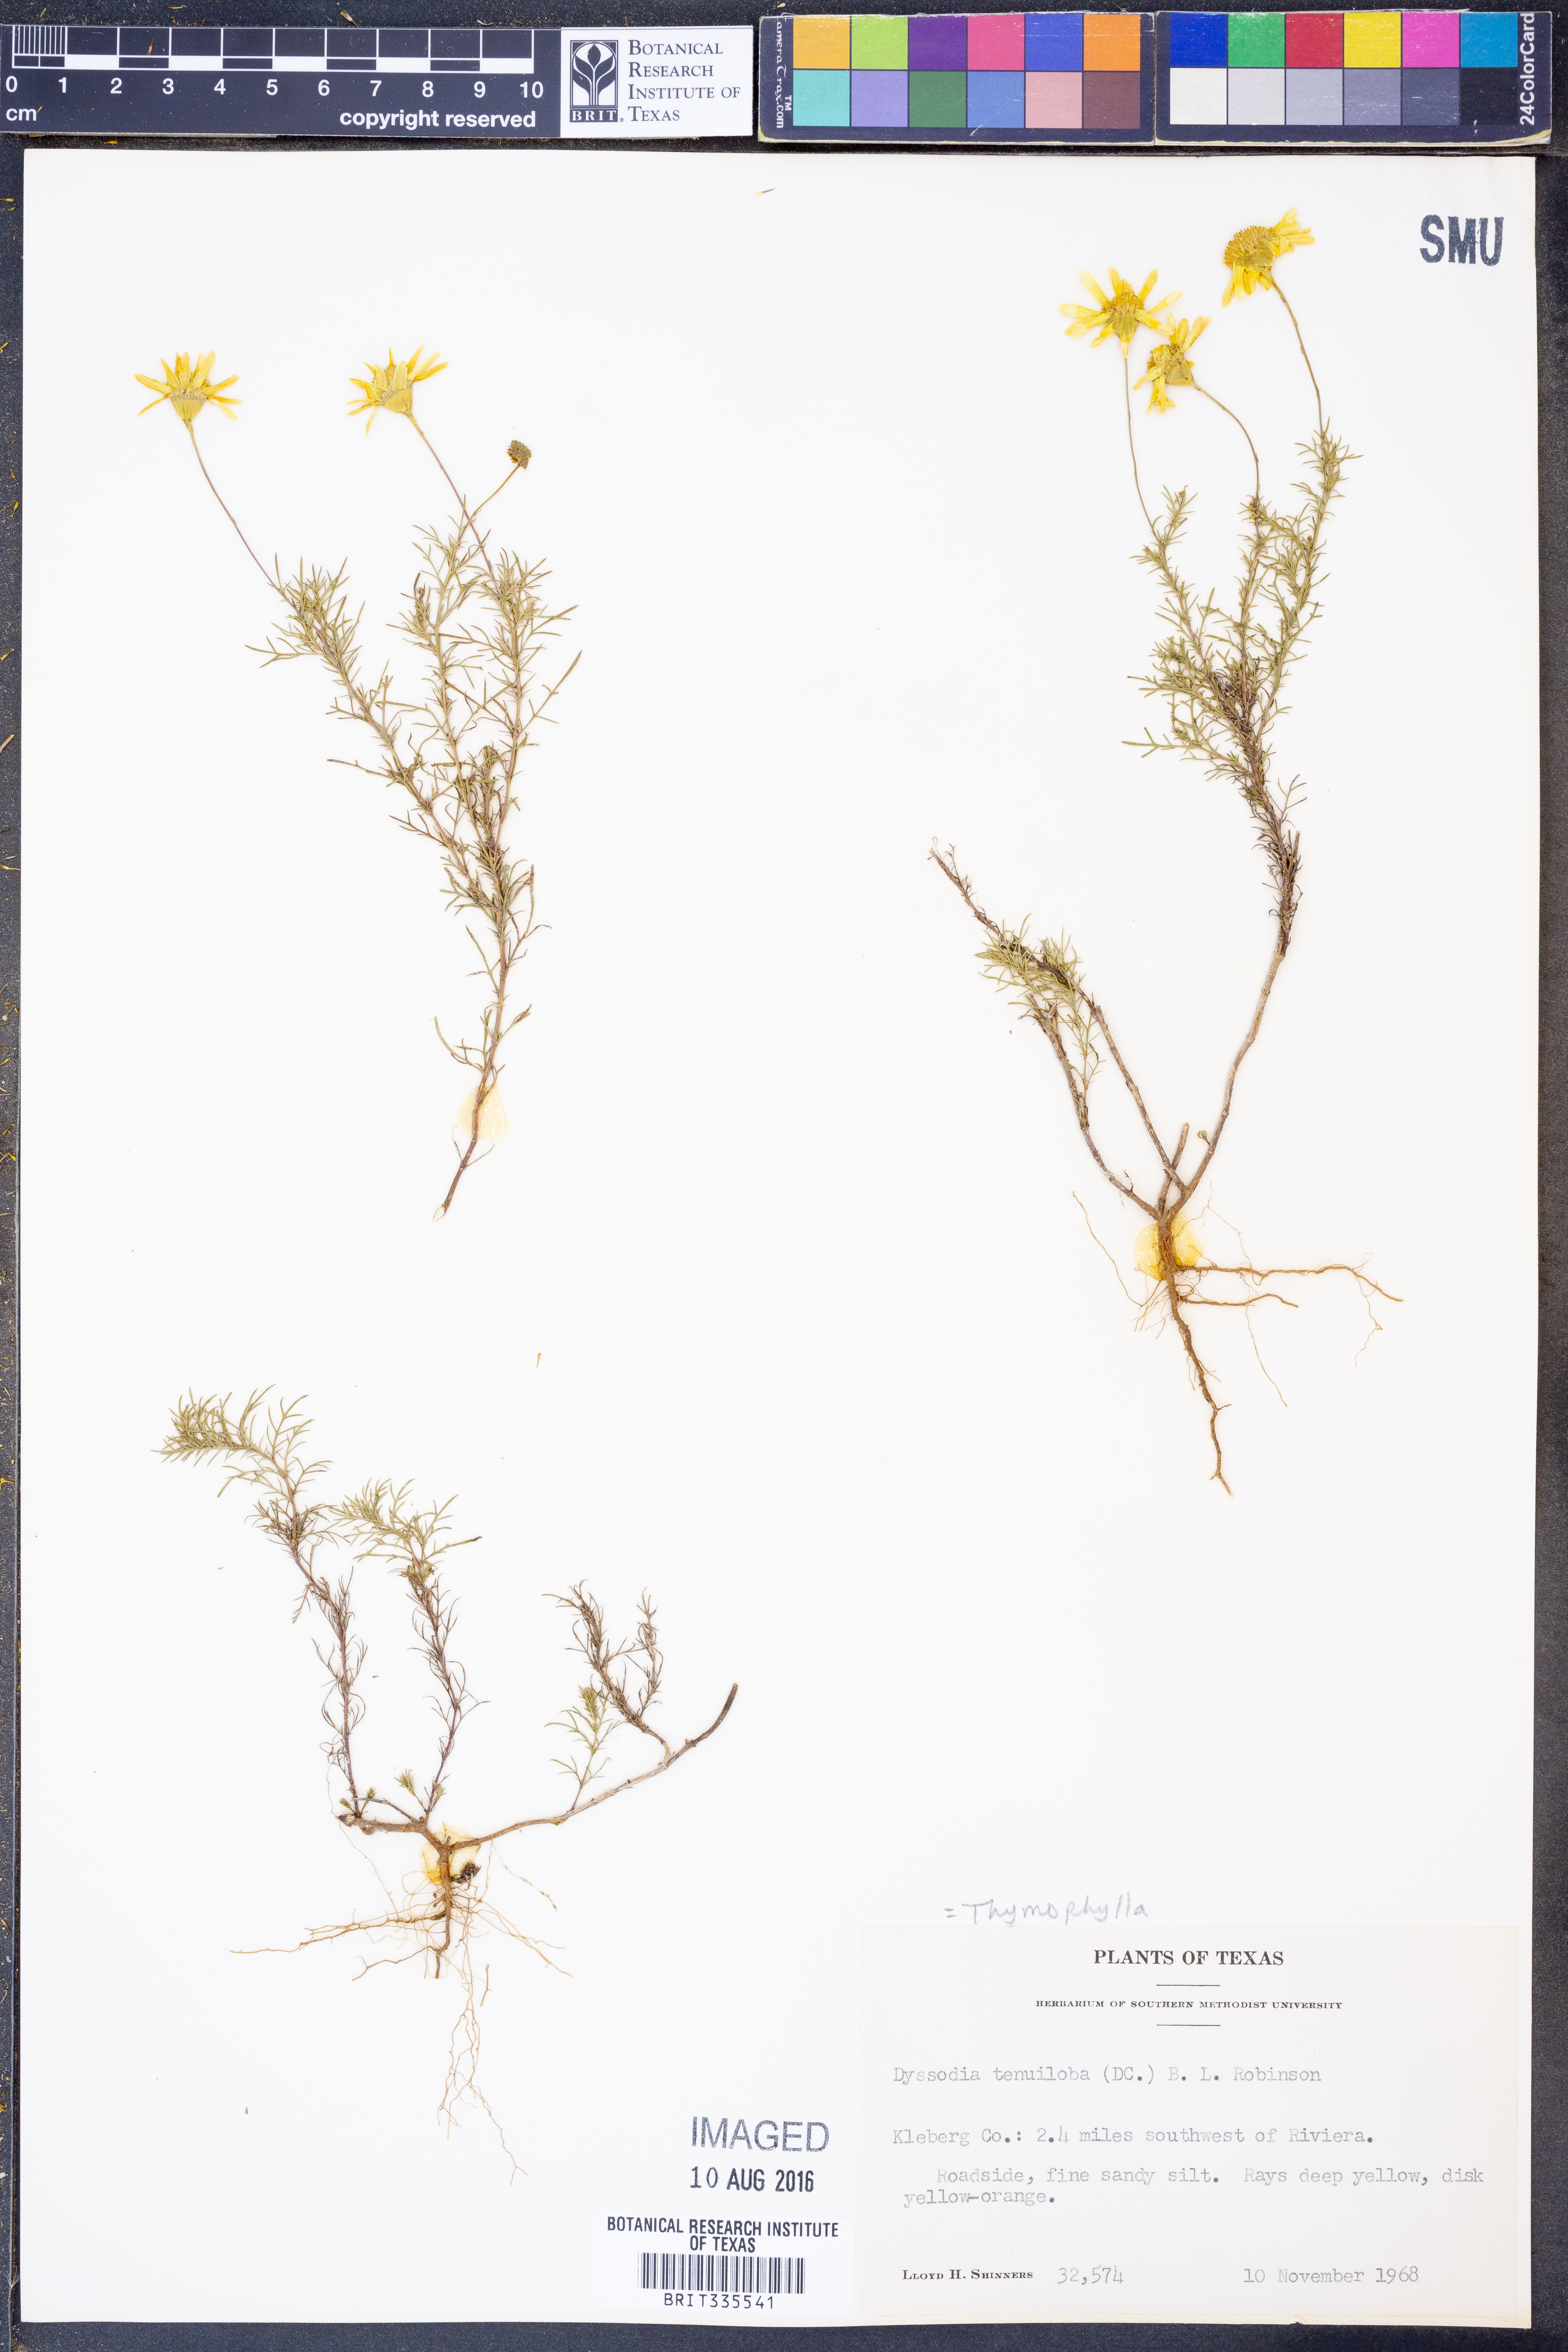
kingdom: Plantae
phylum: Tracheophyta
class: Magnoliopsida
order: Asterales
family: Asteraceae
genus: Thymophylla
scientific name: Thymophylla tenuiloba
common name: Dahlberg's daisy
